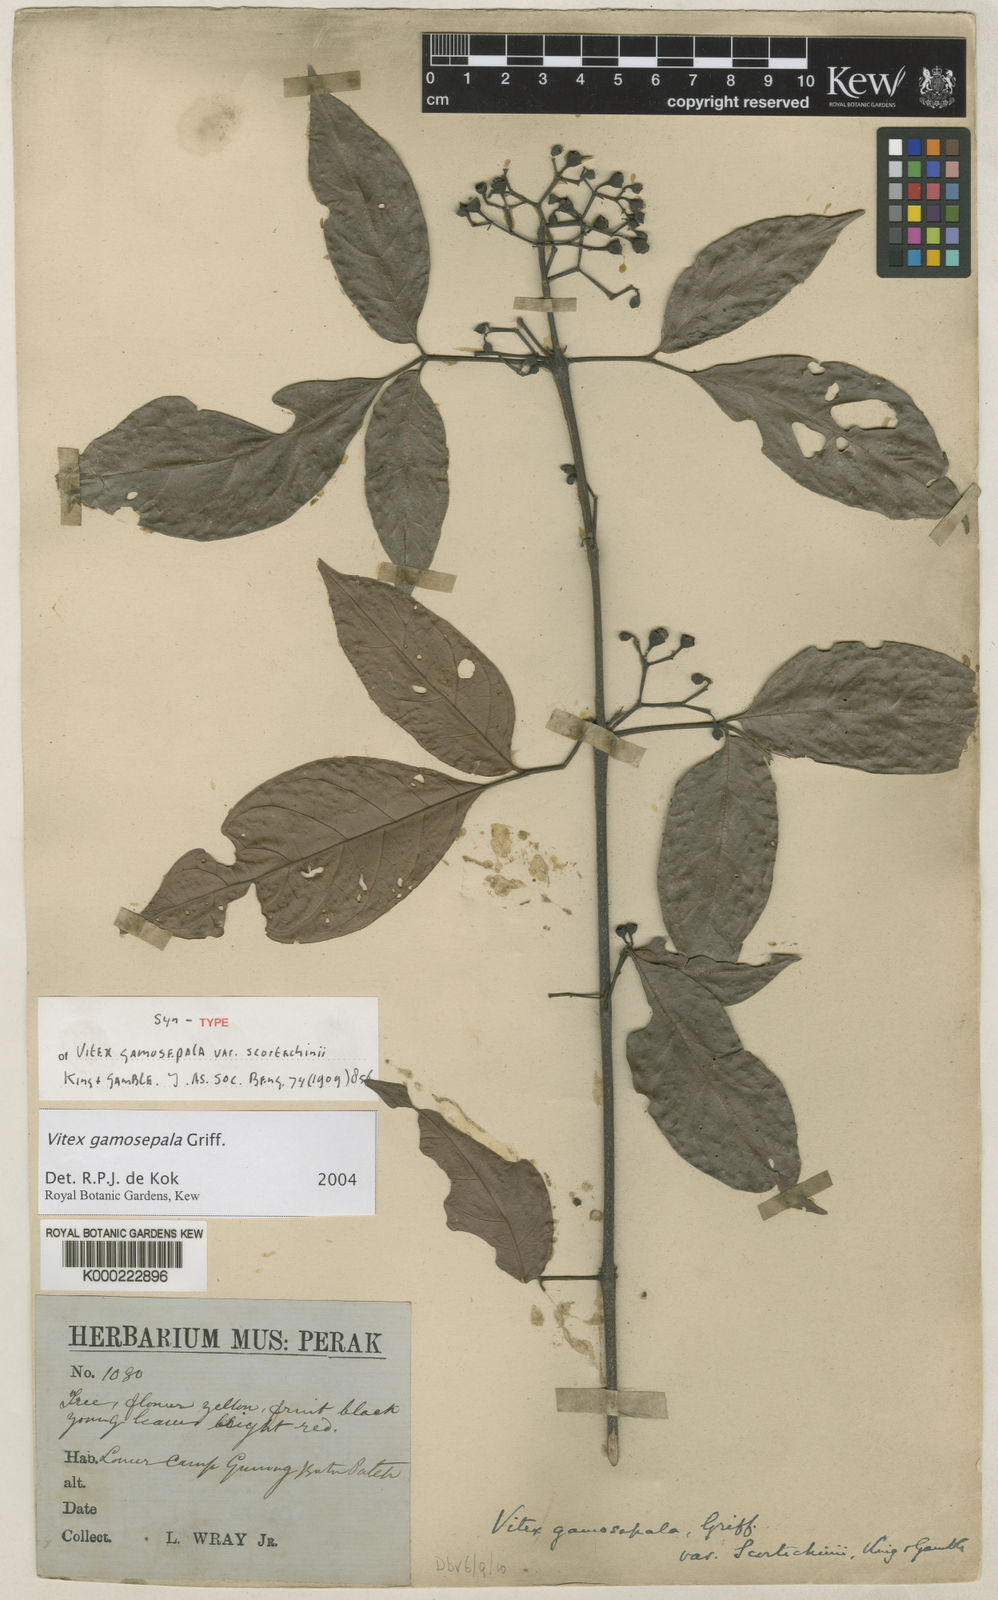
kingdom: Plantae
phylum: Tracheophyta
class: Magnoliopsida
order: Lamiales
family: Lamiaceae
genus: Vitex
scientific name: Vitex gamosepala
